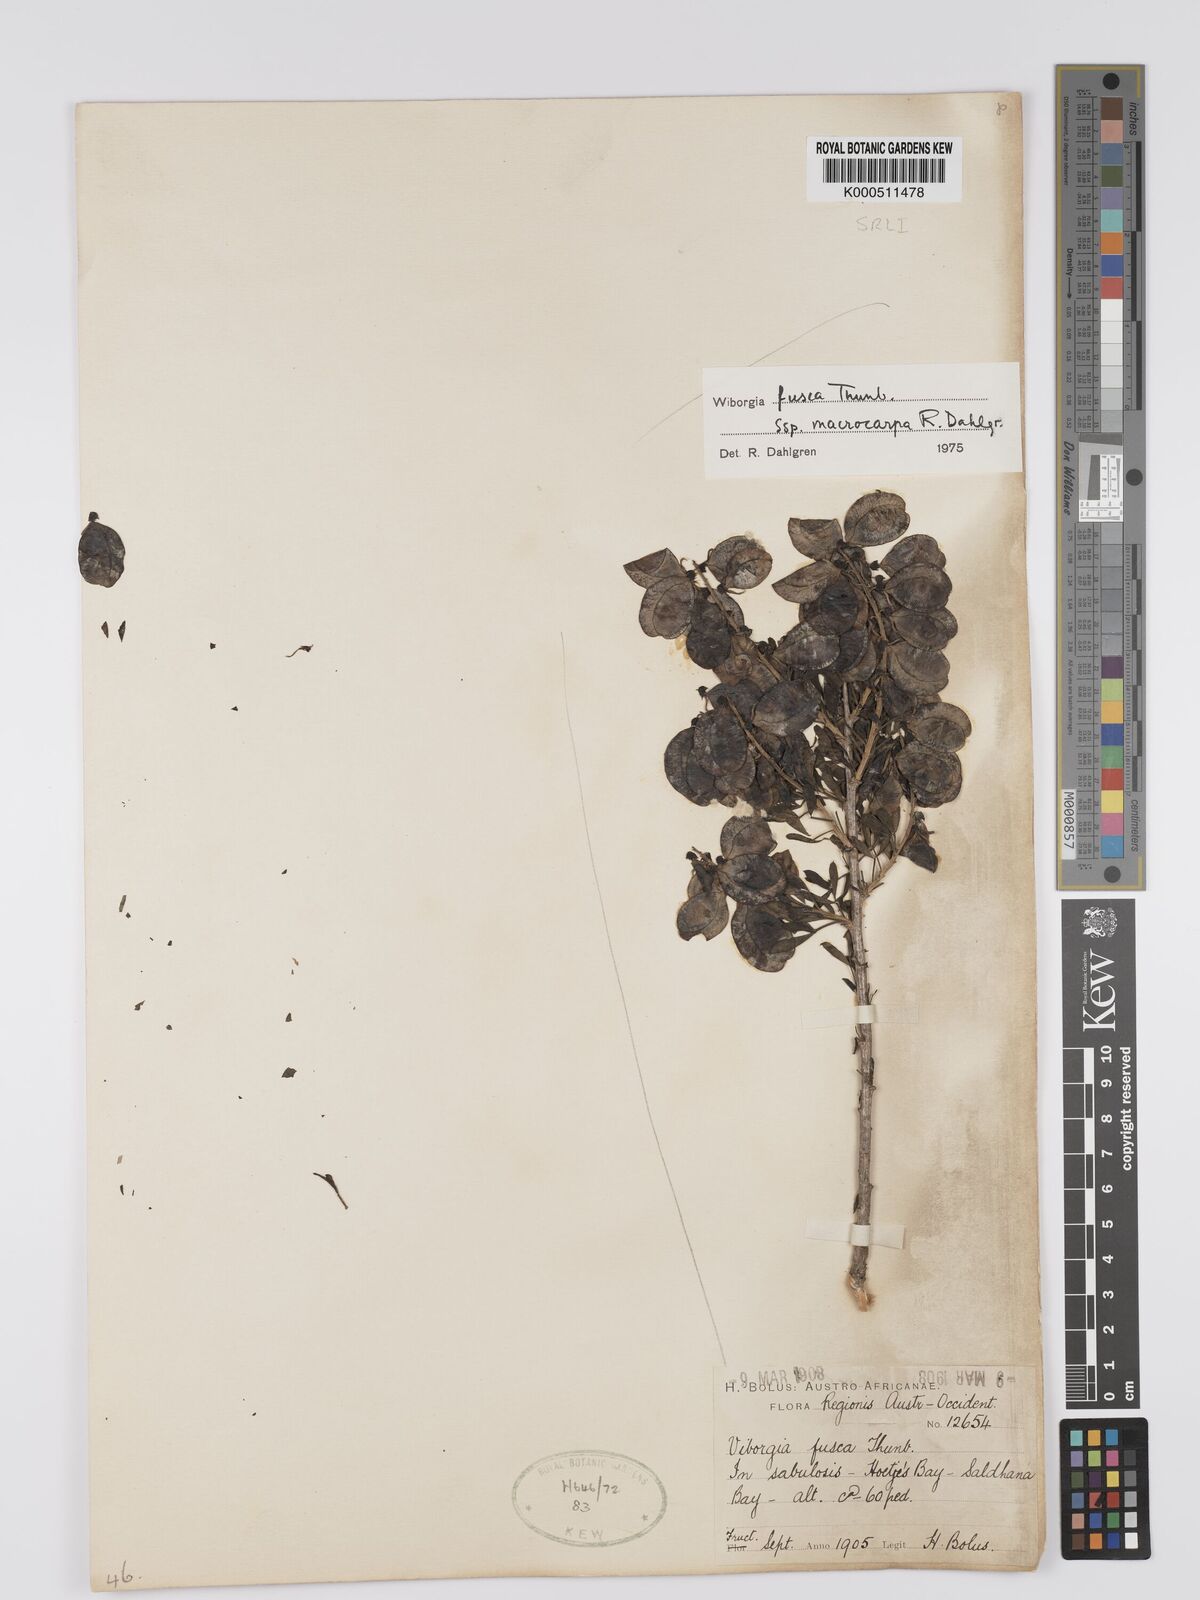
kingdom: Plantae
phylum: Tracheophyta
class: Magnoliopsida
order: Fabales
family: Fabaceae
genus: Wiborgia
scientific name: Wiborgia fusca
